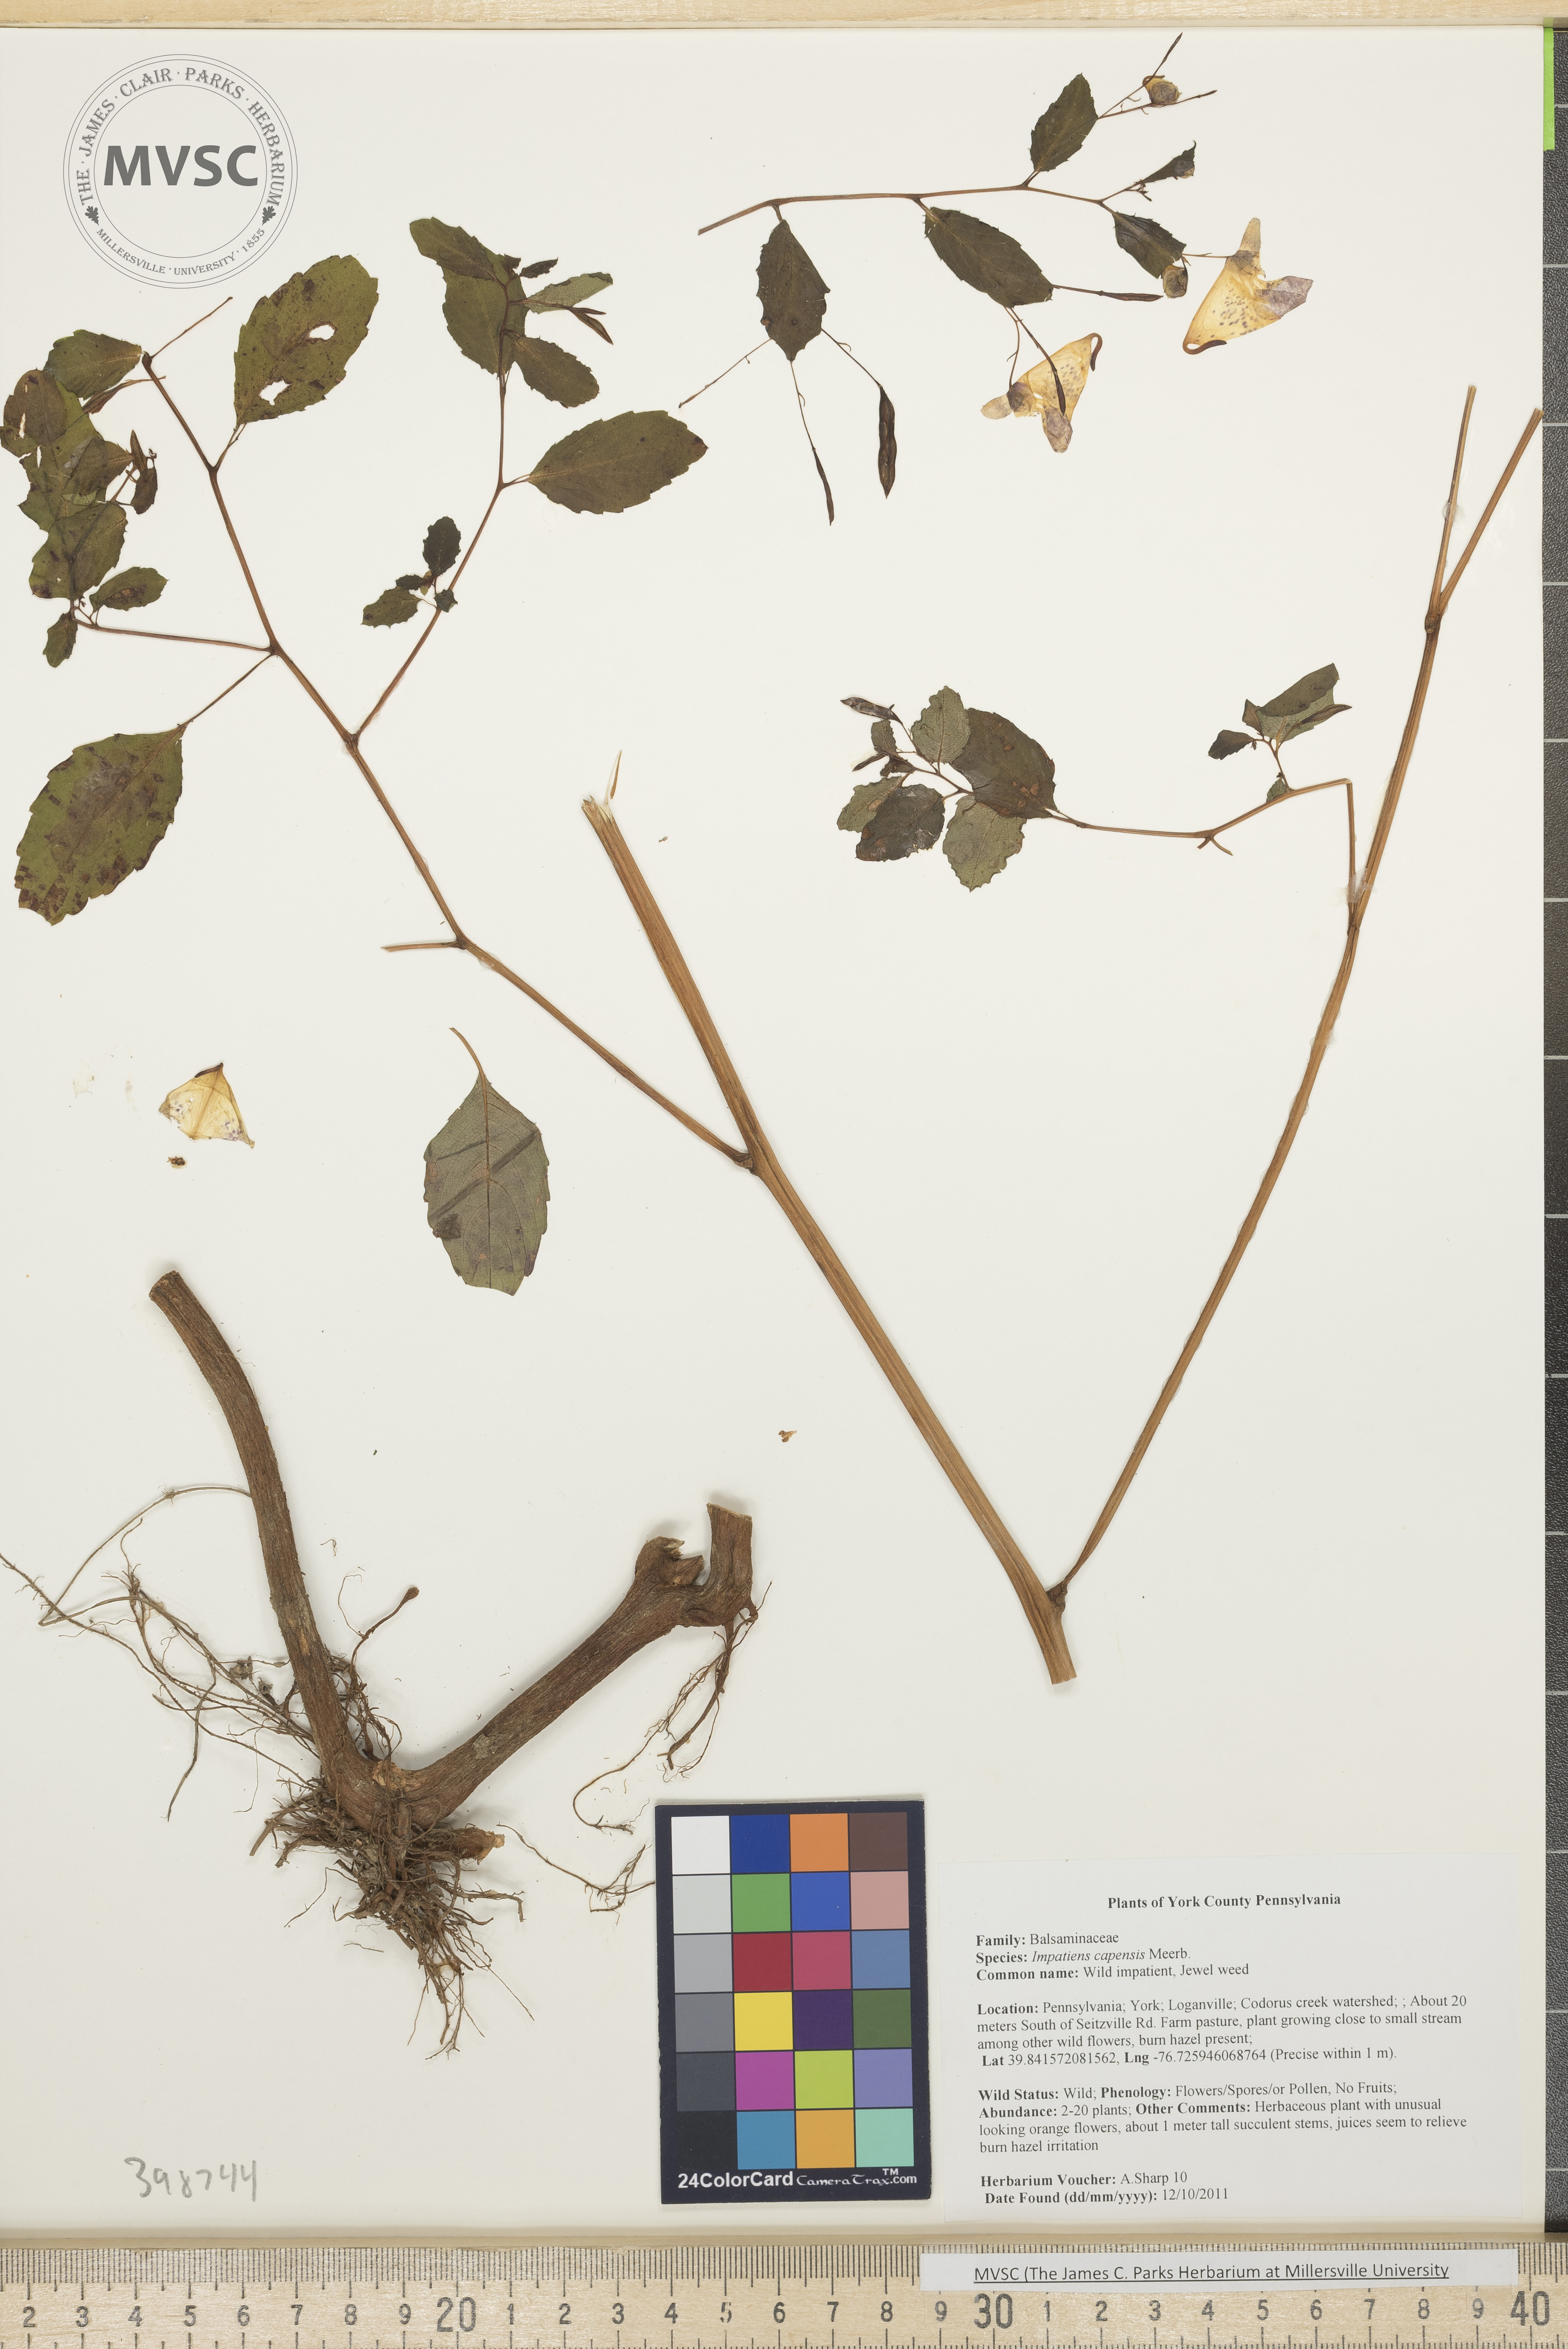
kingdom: Plantae
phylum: Tracheophyta
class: Magnoliopsida
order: Ericales
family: Balsaminaceae
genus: Impatiens
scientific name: Impatiens capensis
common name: Jewelweed
